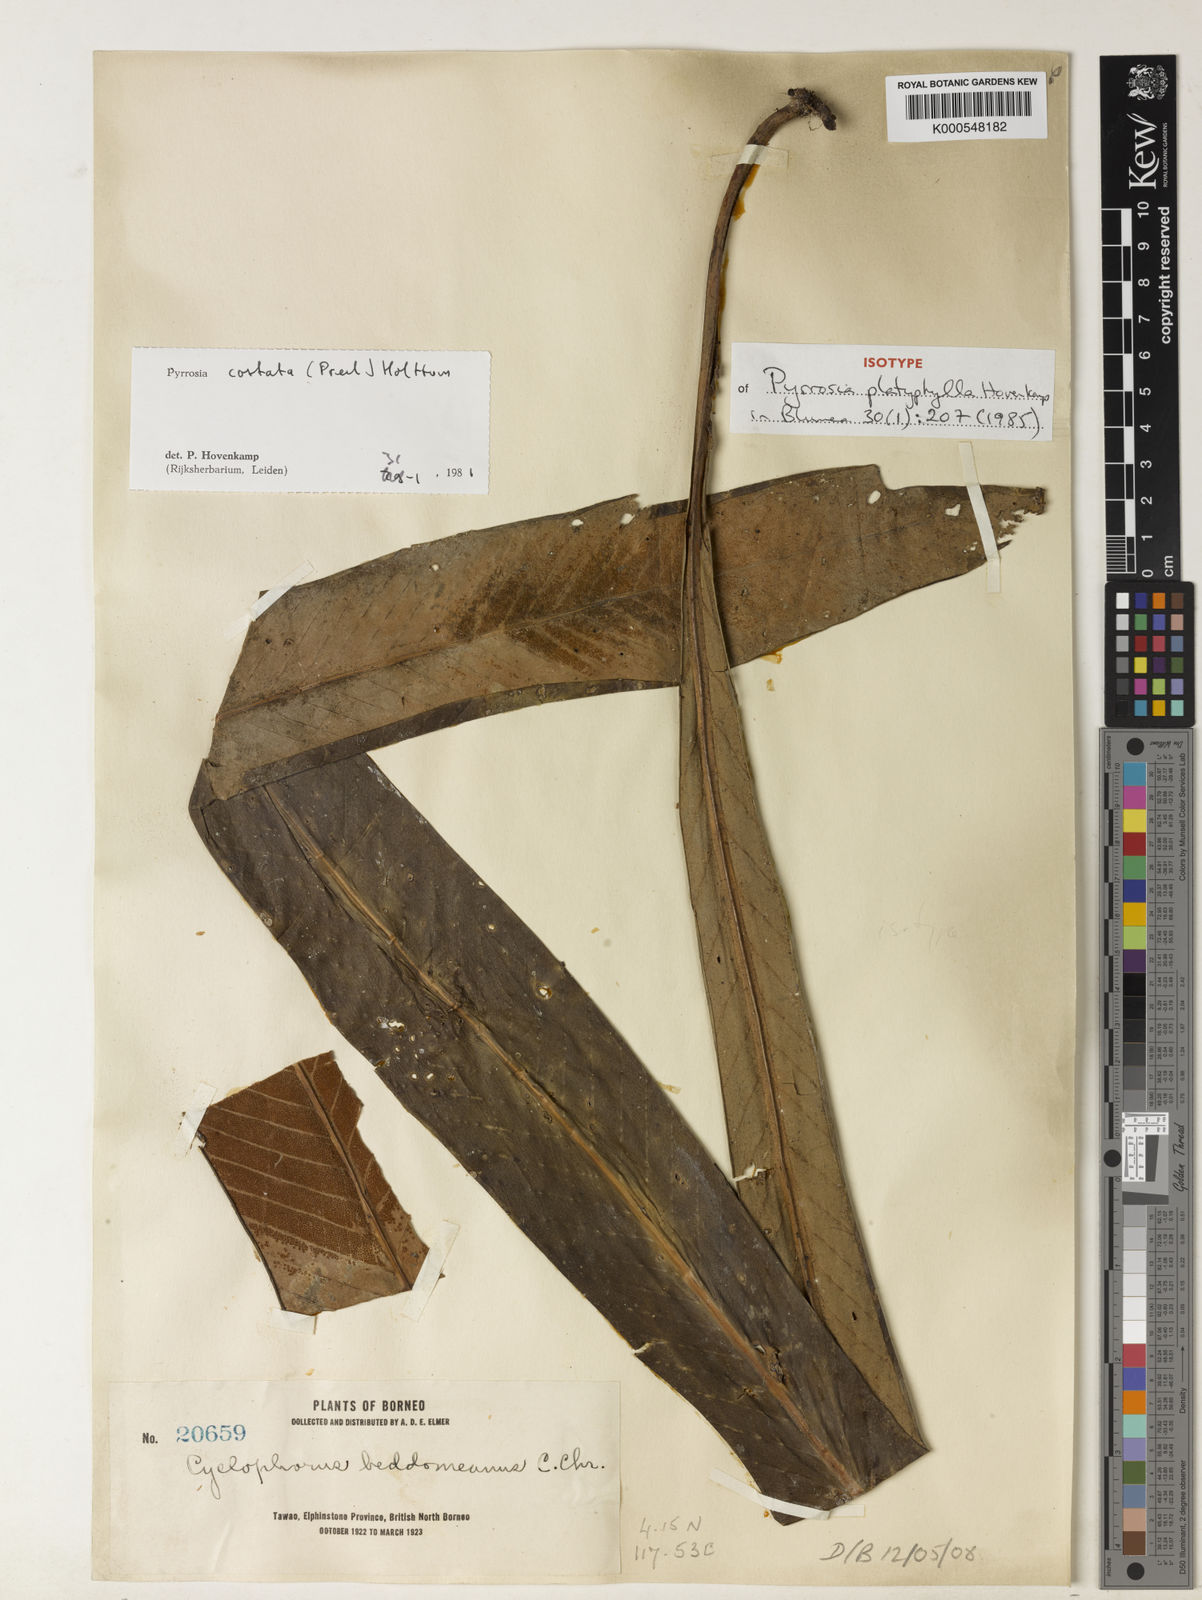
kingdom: Plantae
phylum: Tracheophyta
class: Polypodiopsida
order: Polypodiales
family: Polypodiaceae
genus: Pyrrosia
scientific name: Pyrrosia costata
